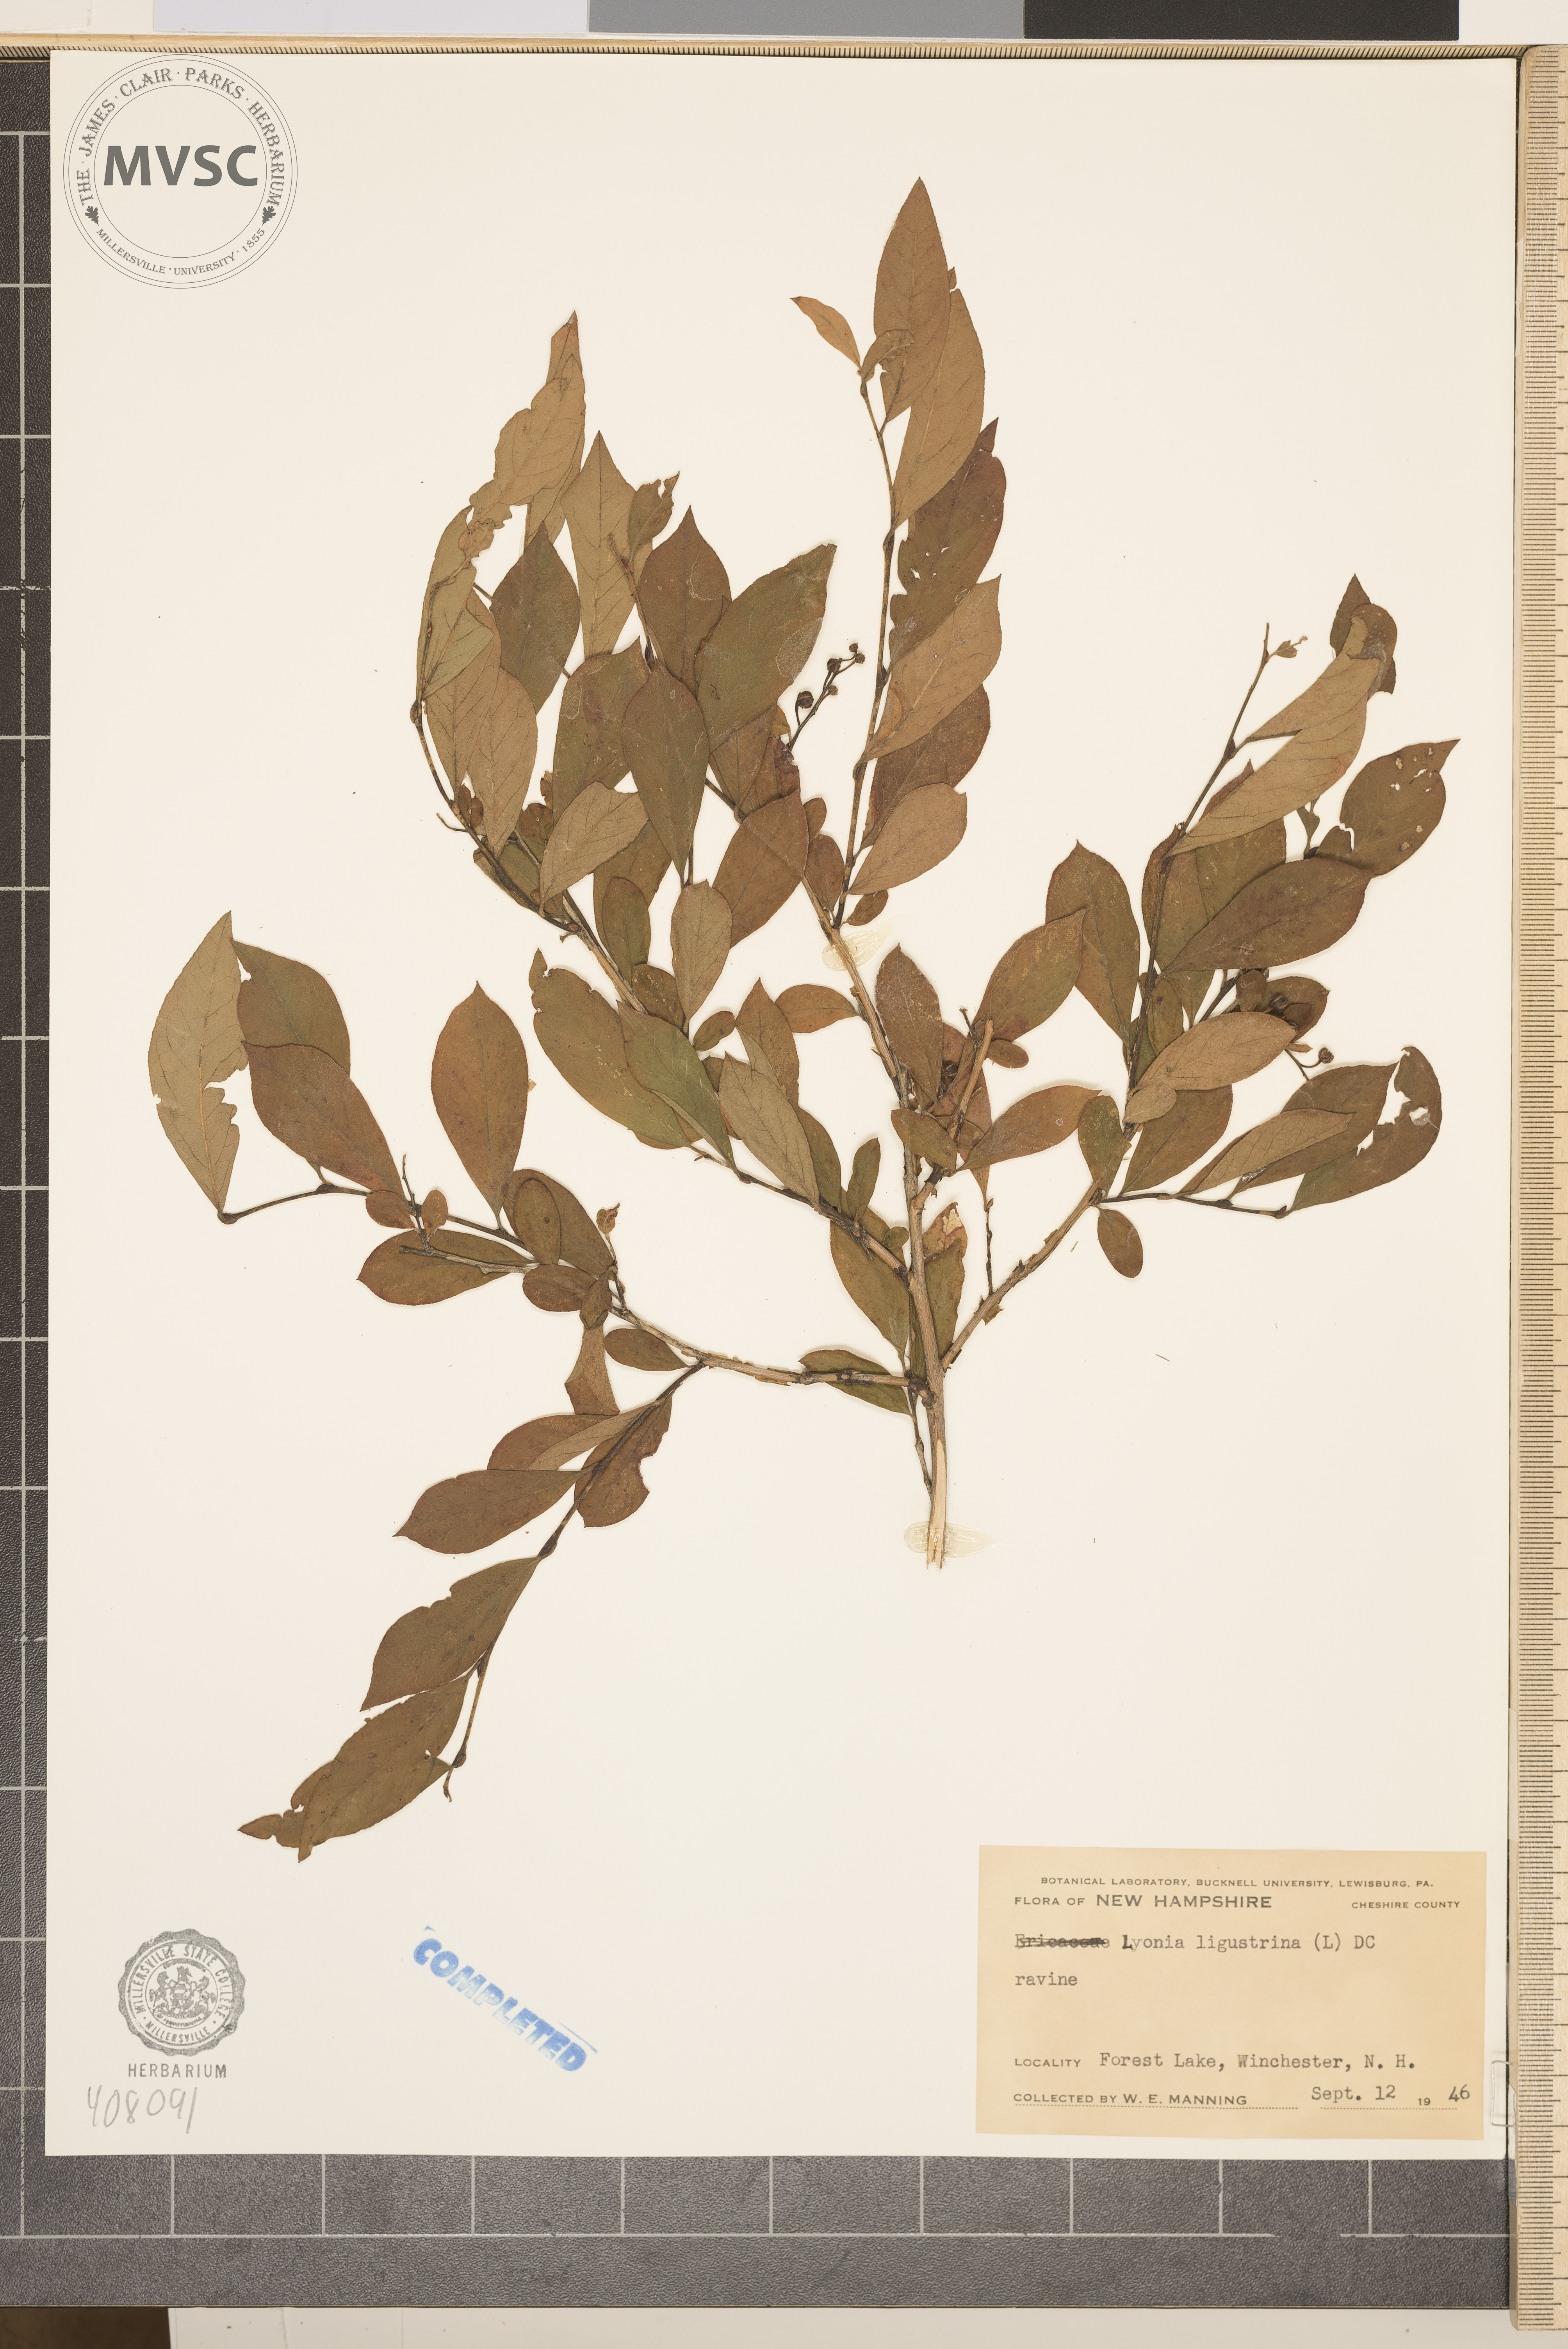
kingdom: Plantae
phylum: Tracheophyta
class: Magnoliopsida
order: Ericales
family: Ericaceae
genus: Lyonia
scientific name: Lyonia ligustrina
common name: Maleberry
